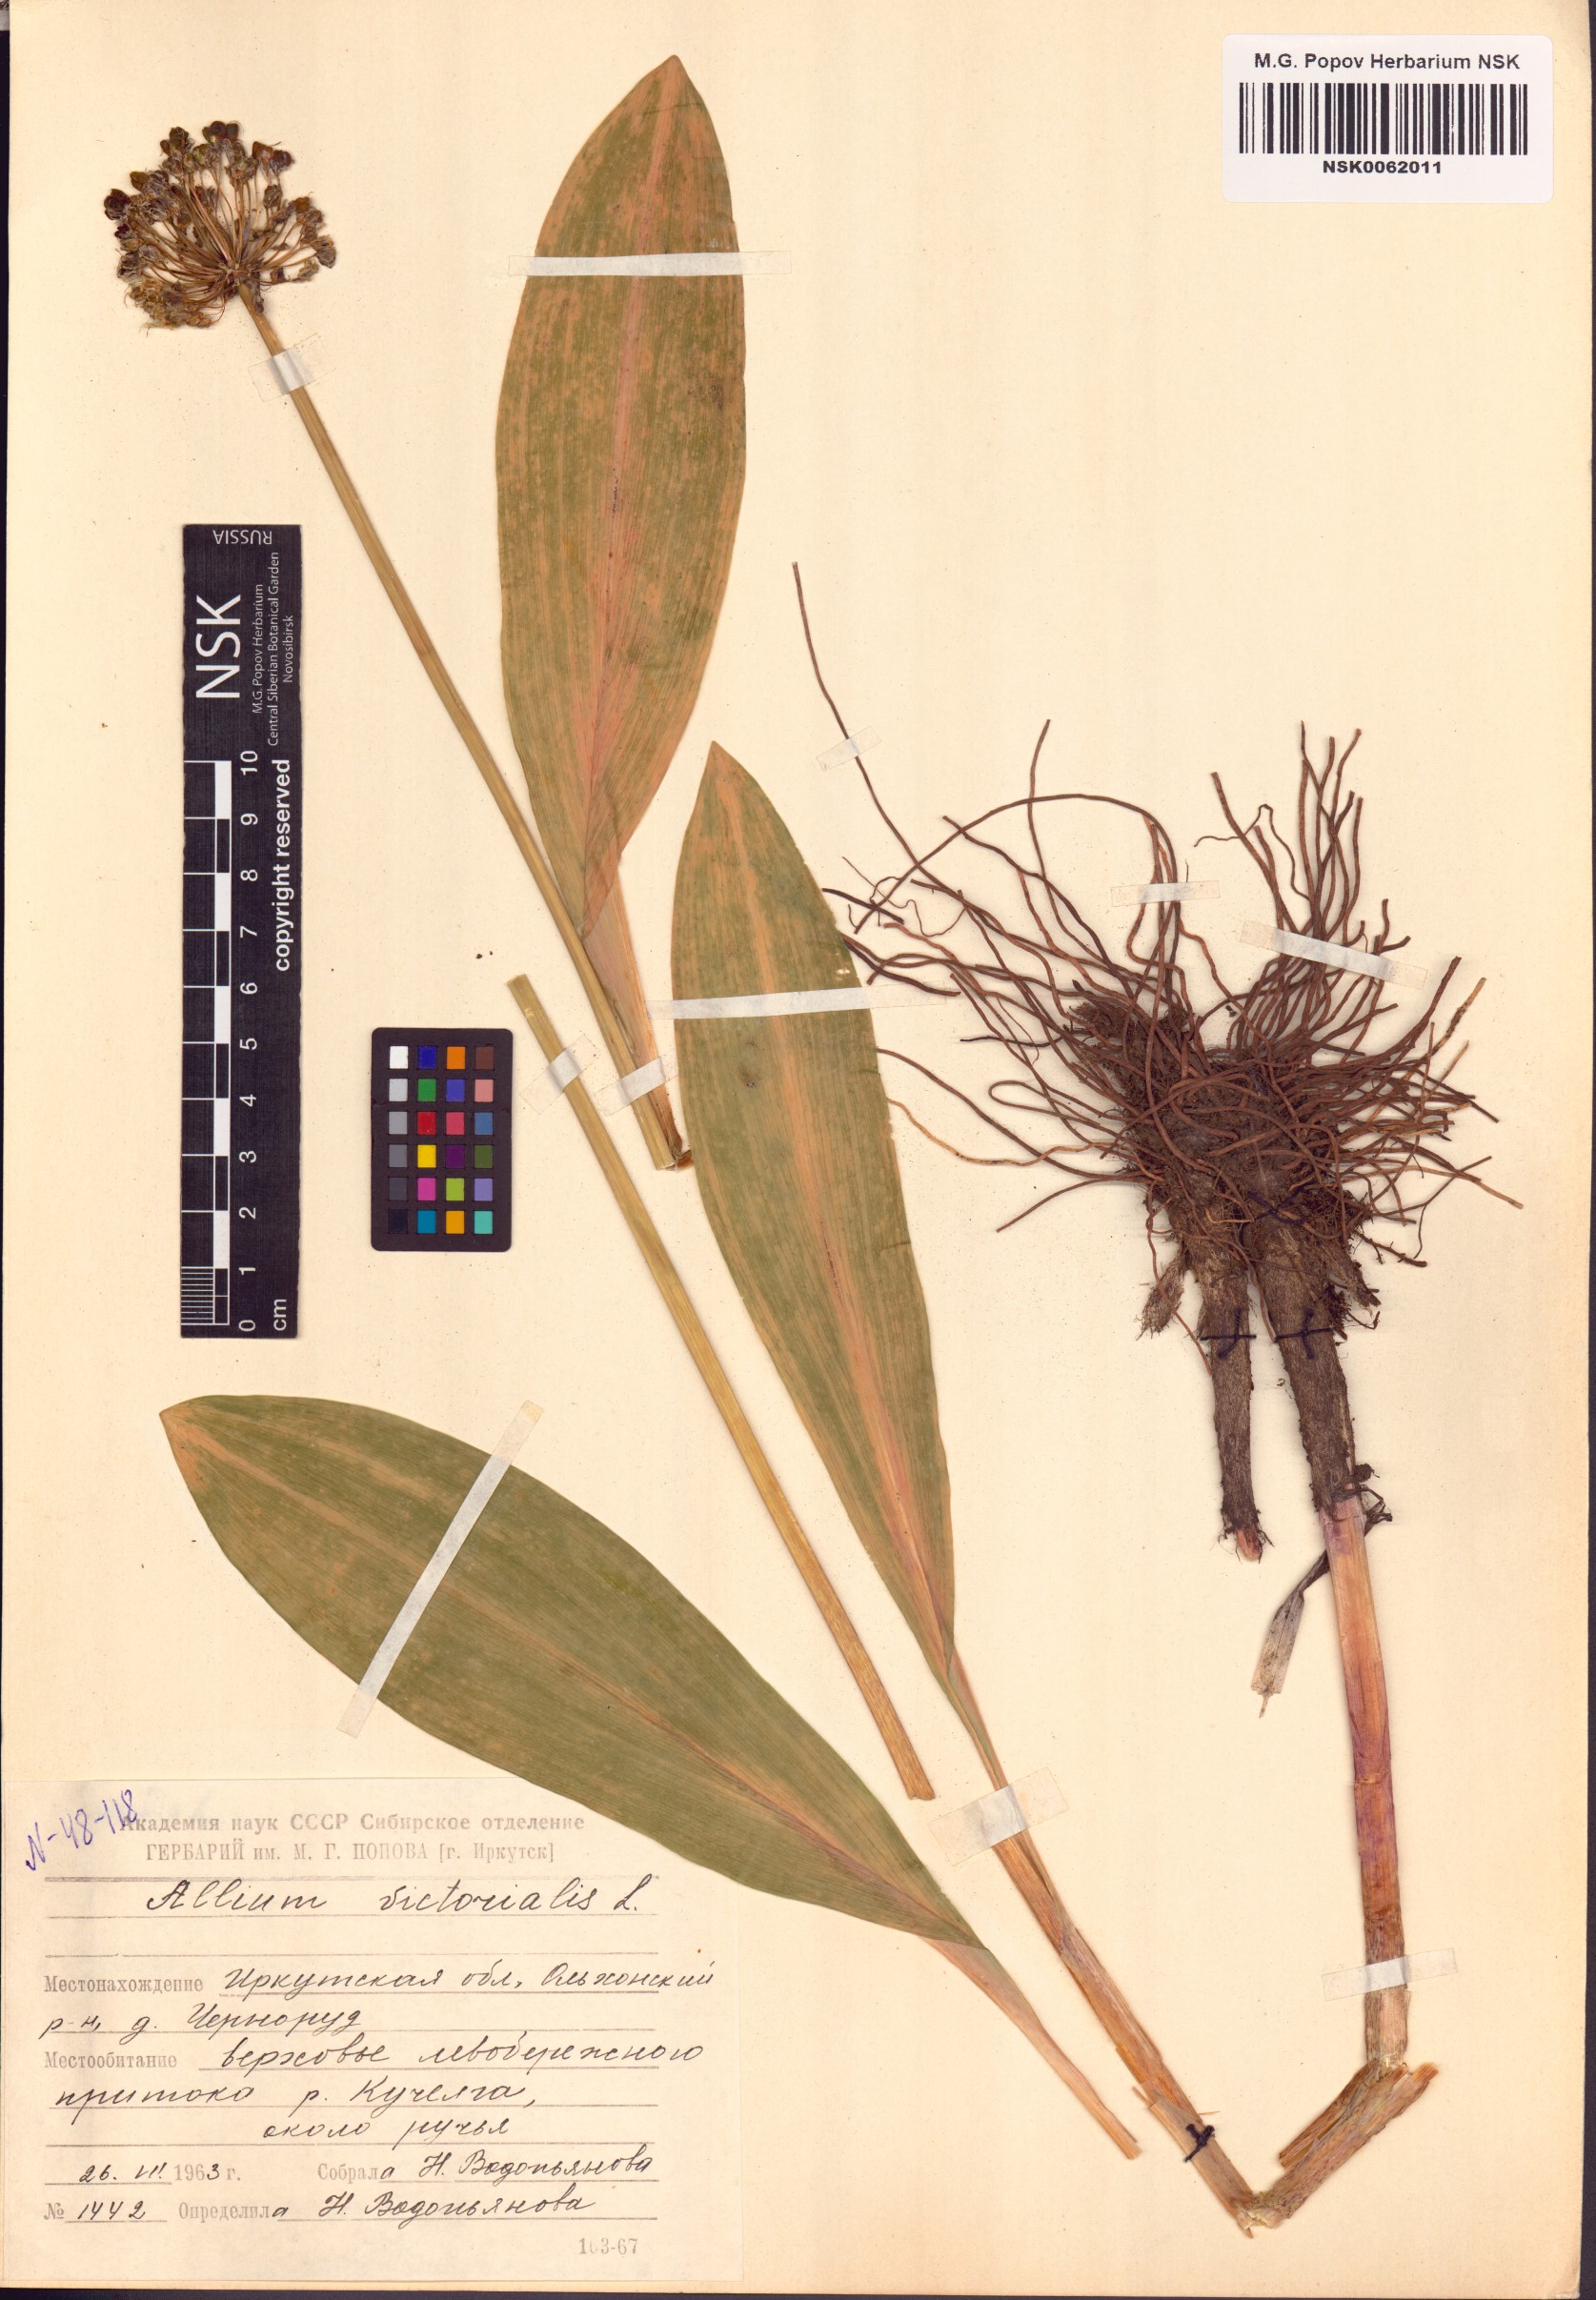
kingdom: Plantae
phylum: Tracheophyta
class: Liliopsida
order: Asparagales
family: Amaryllidaceae
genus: Allium
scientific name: Allium victorialis
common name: Alpine leek
